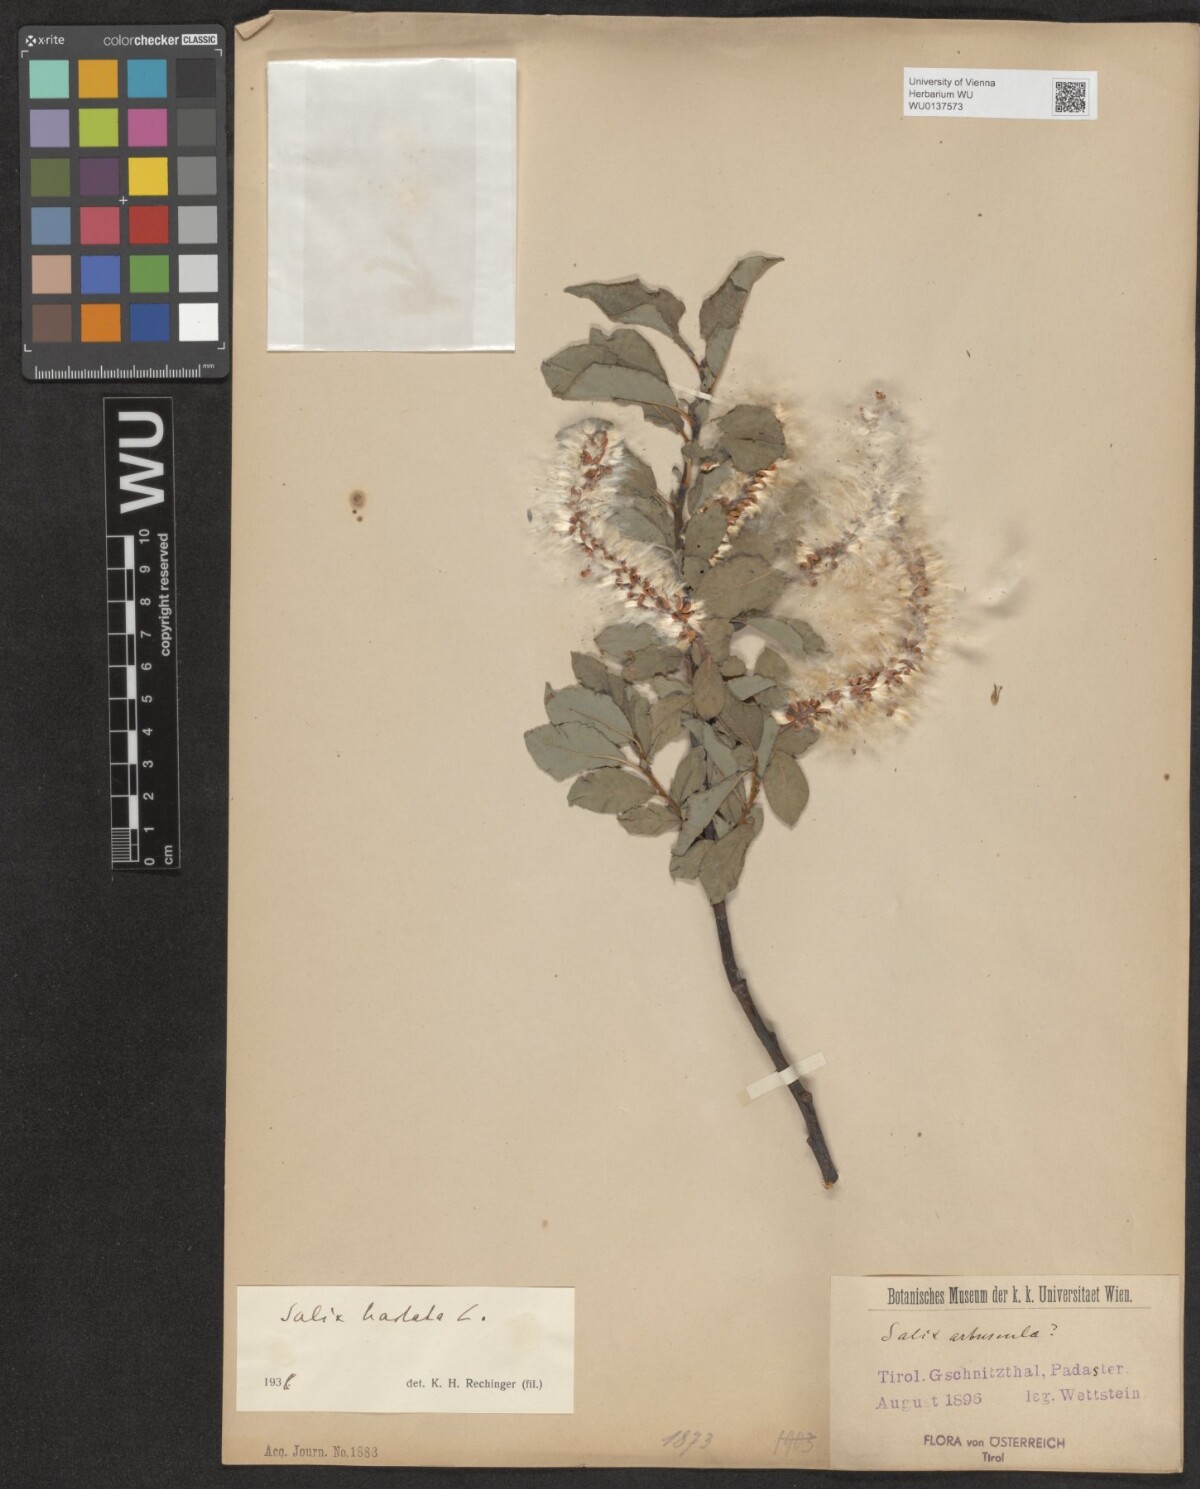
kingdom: Plantae
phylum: Tracheophyta
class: Magnoliopsida
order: Malpighiales
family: Salicaceae
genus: Salix
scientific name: Salix hastata
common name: Halberd willow
